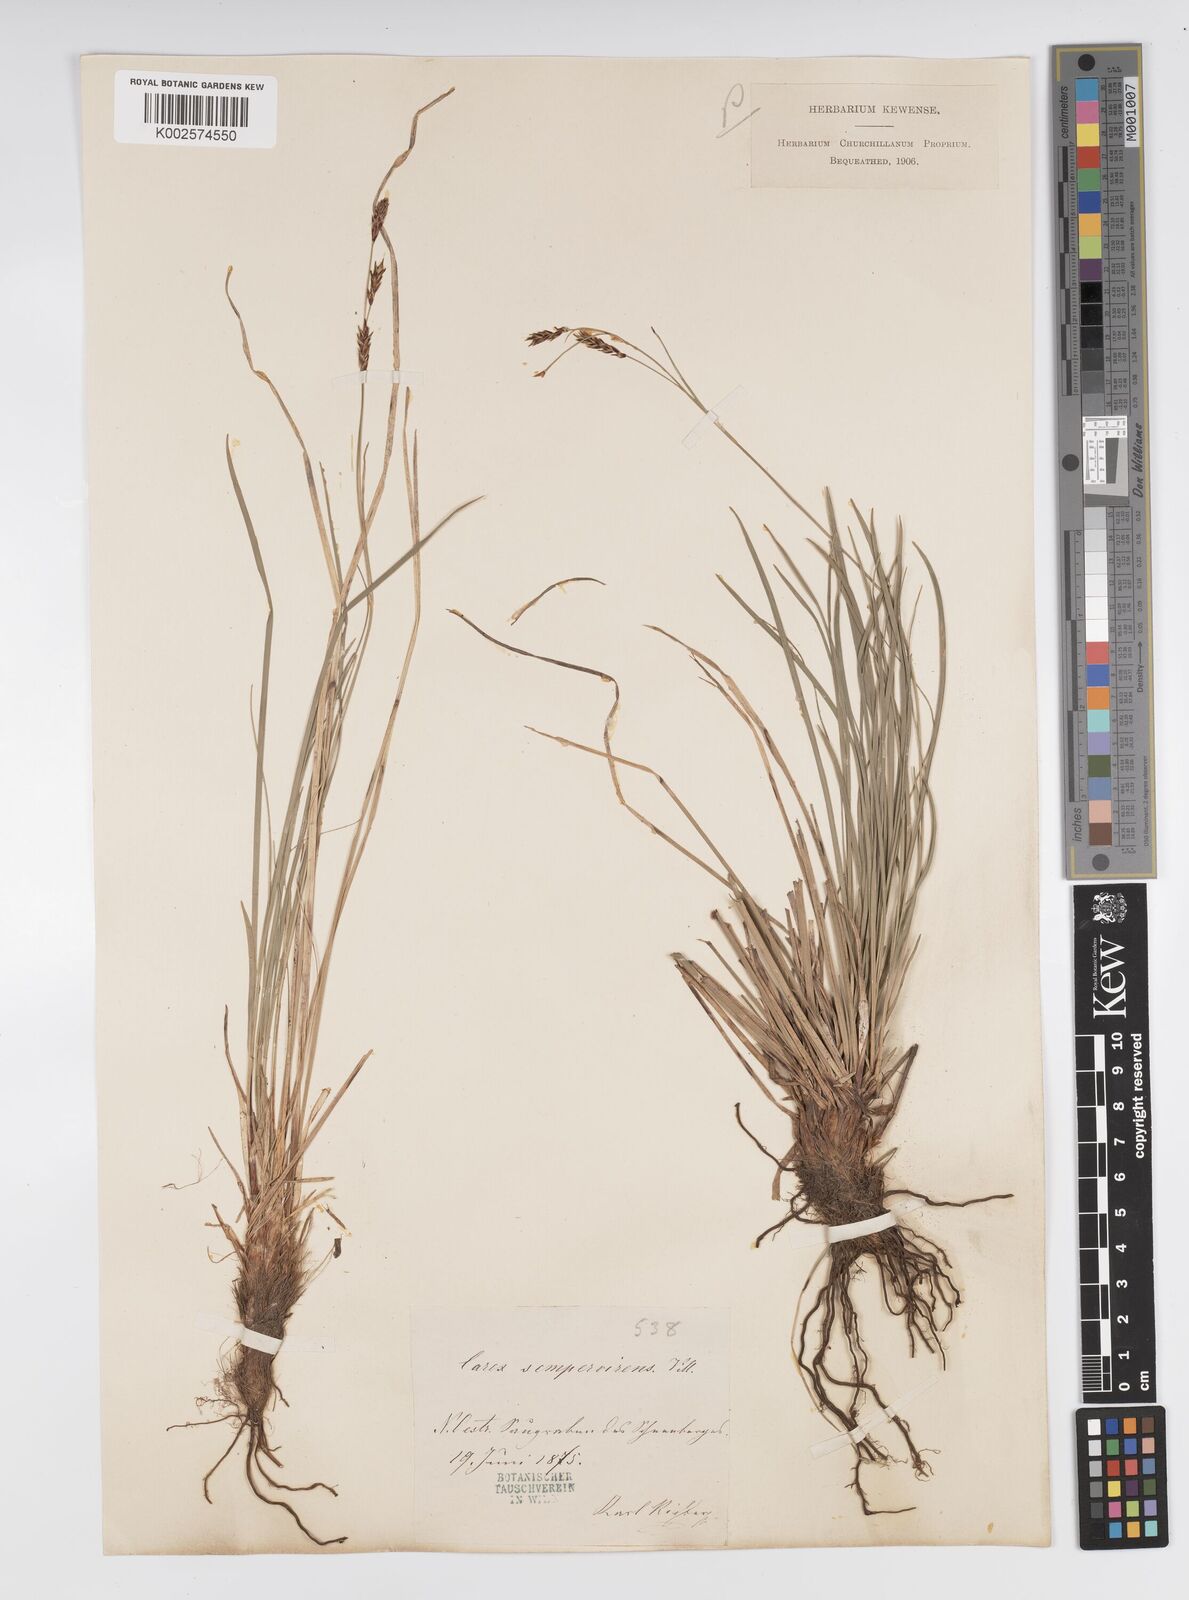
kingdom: Plantae
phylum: Tracheophyta
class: Liliopsida
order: Poales
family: Cyperaceae
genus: Carex
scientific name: Carex sempervirens
